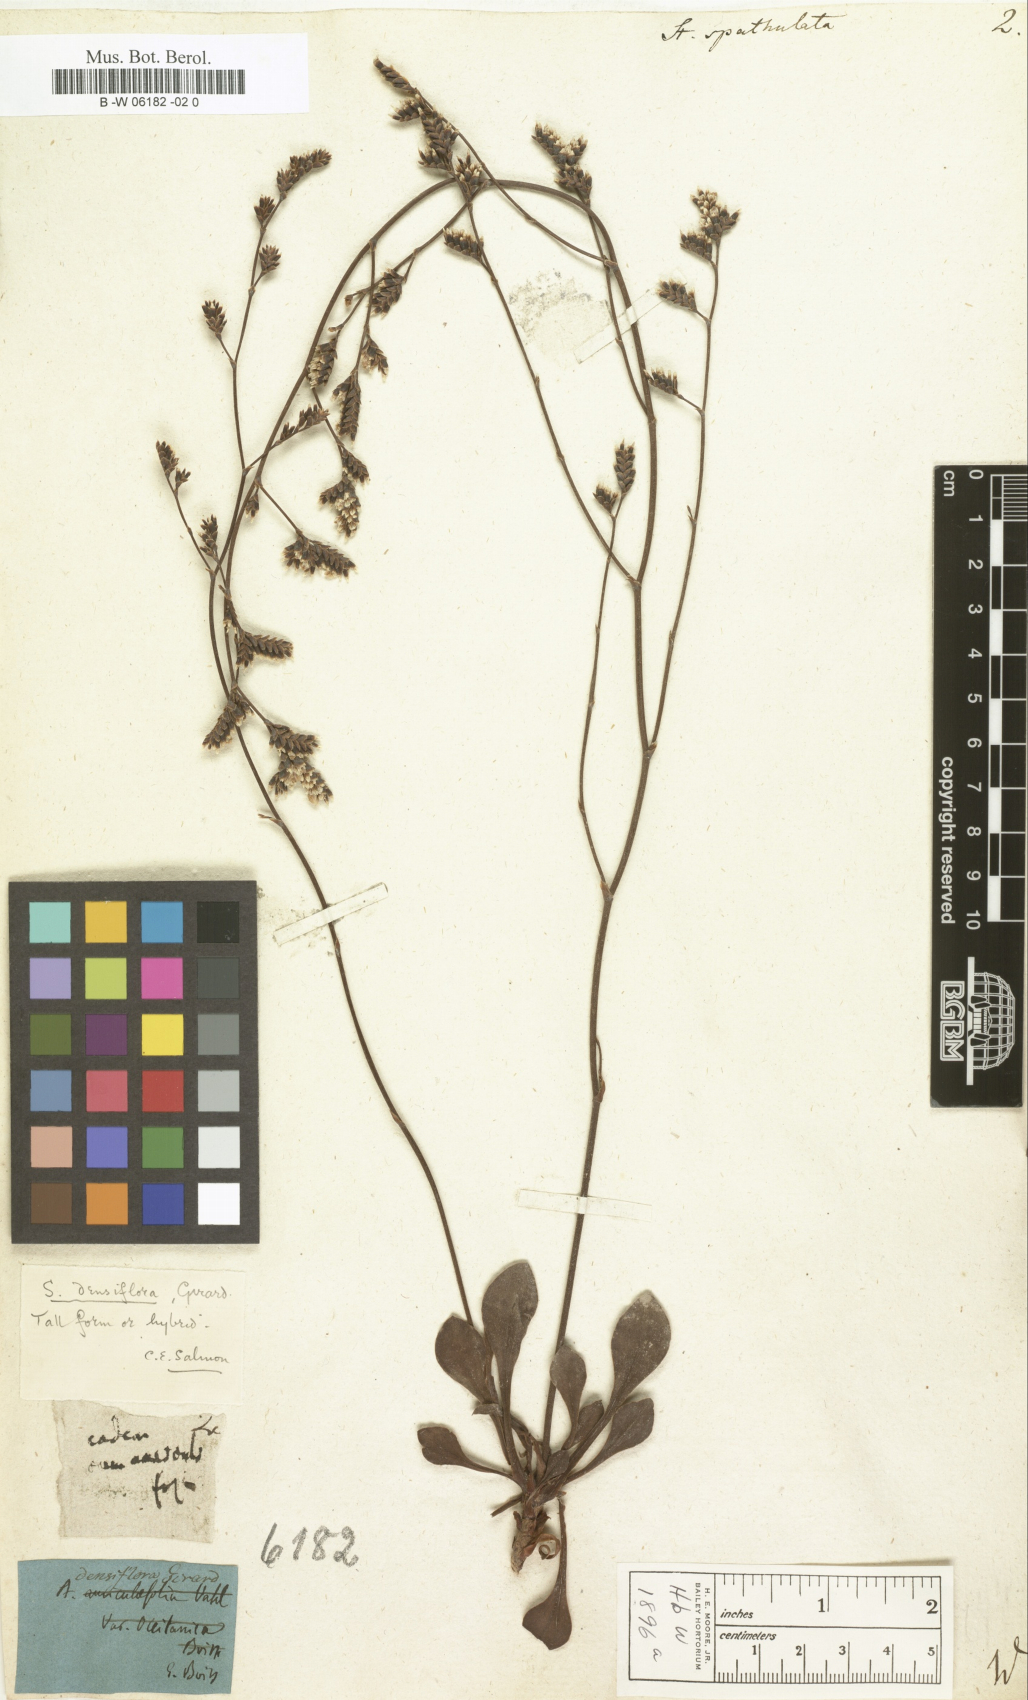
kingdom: Plantae
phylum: Tracheophyta
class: Magnoliopsida
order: Caryophyllales
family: Plumbaginaceae
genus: Limonium
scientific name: Limonium
